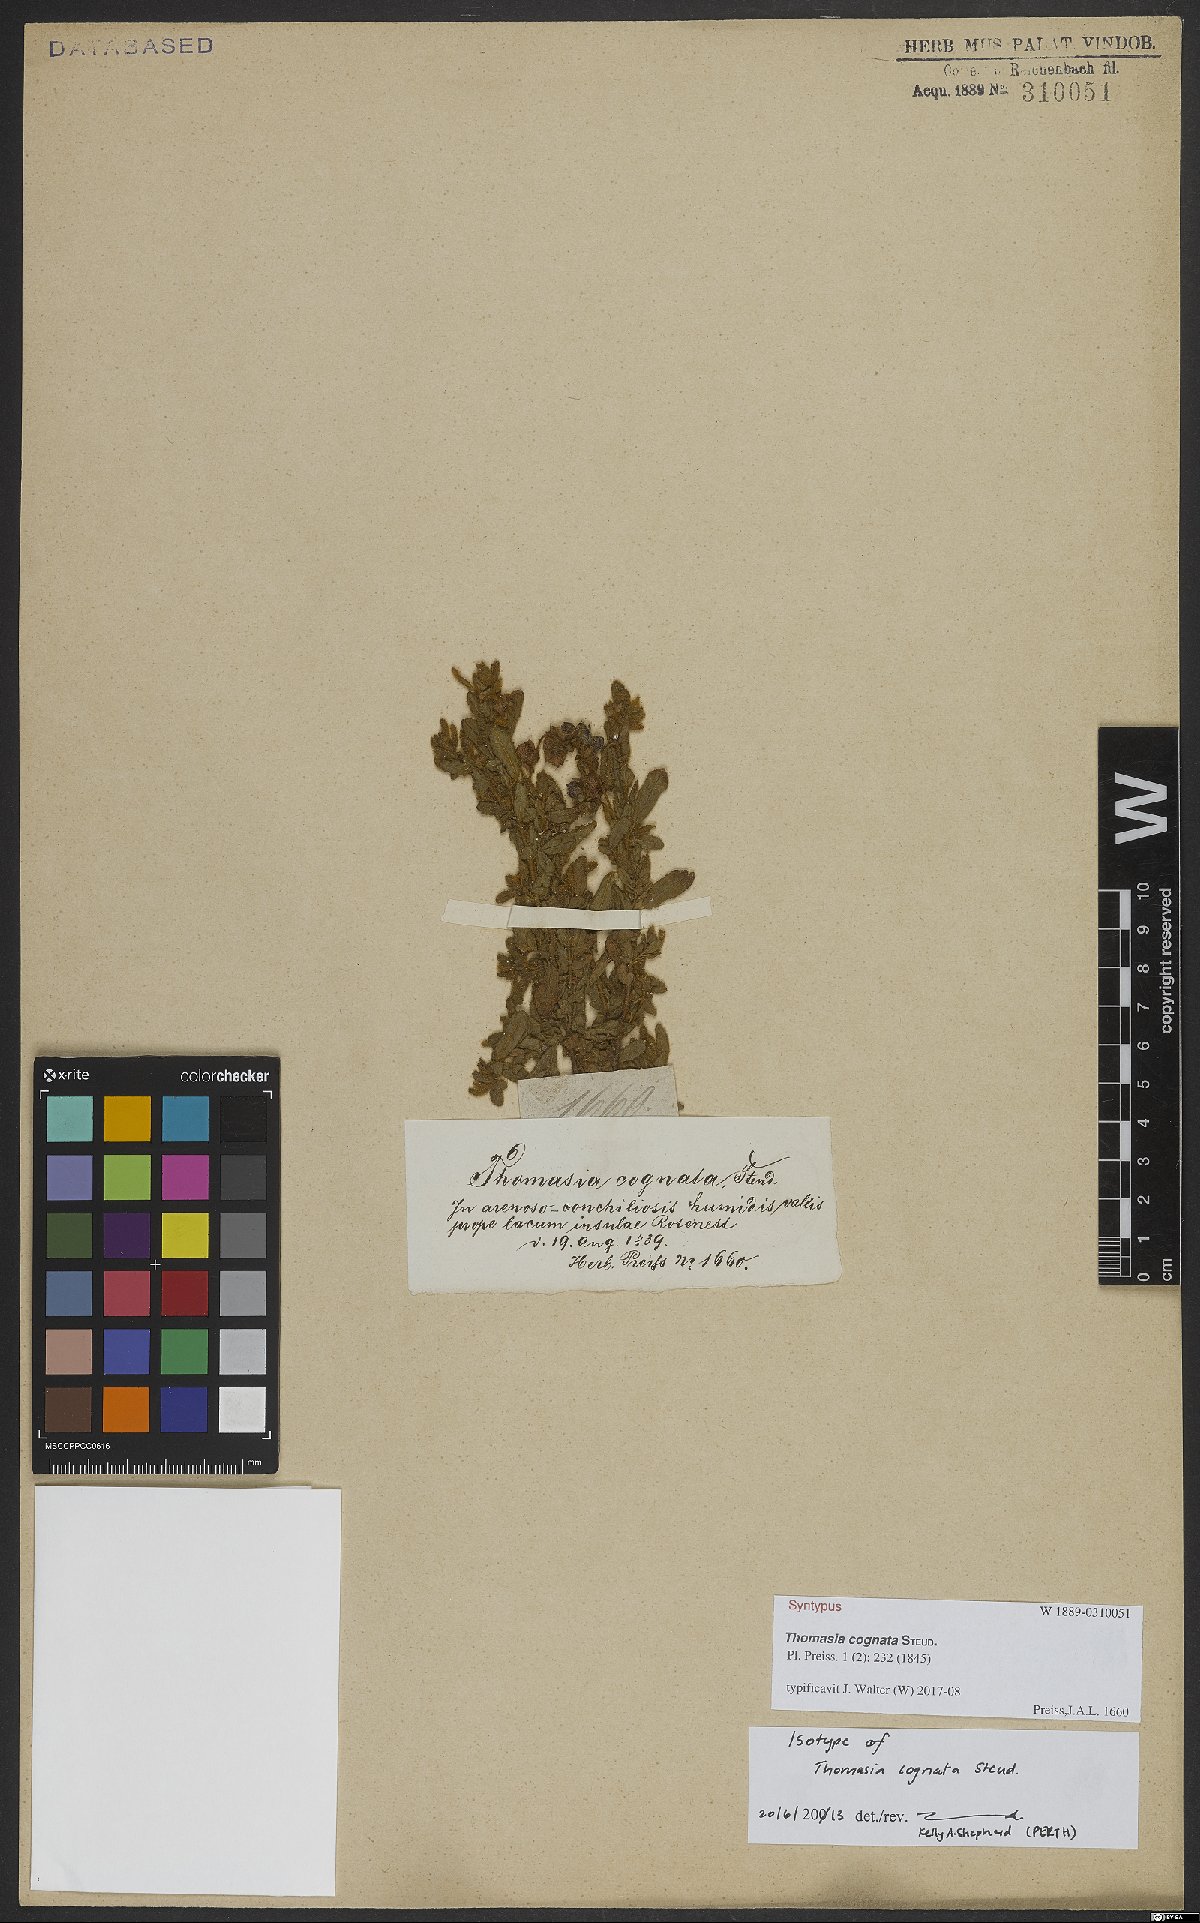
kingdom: Plantae
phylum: Tracheophyta
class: Magnoliopsida
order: Malvales
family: Malvaceae
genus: Thomasia
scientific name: Thomasia cognata
